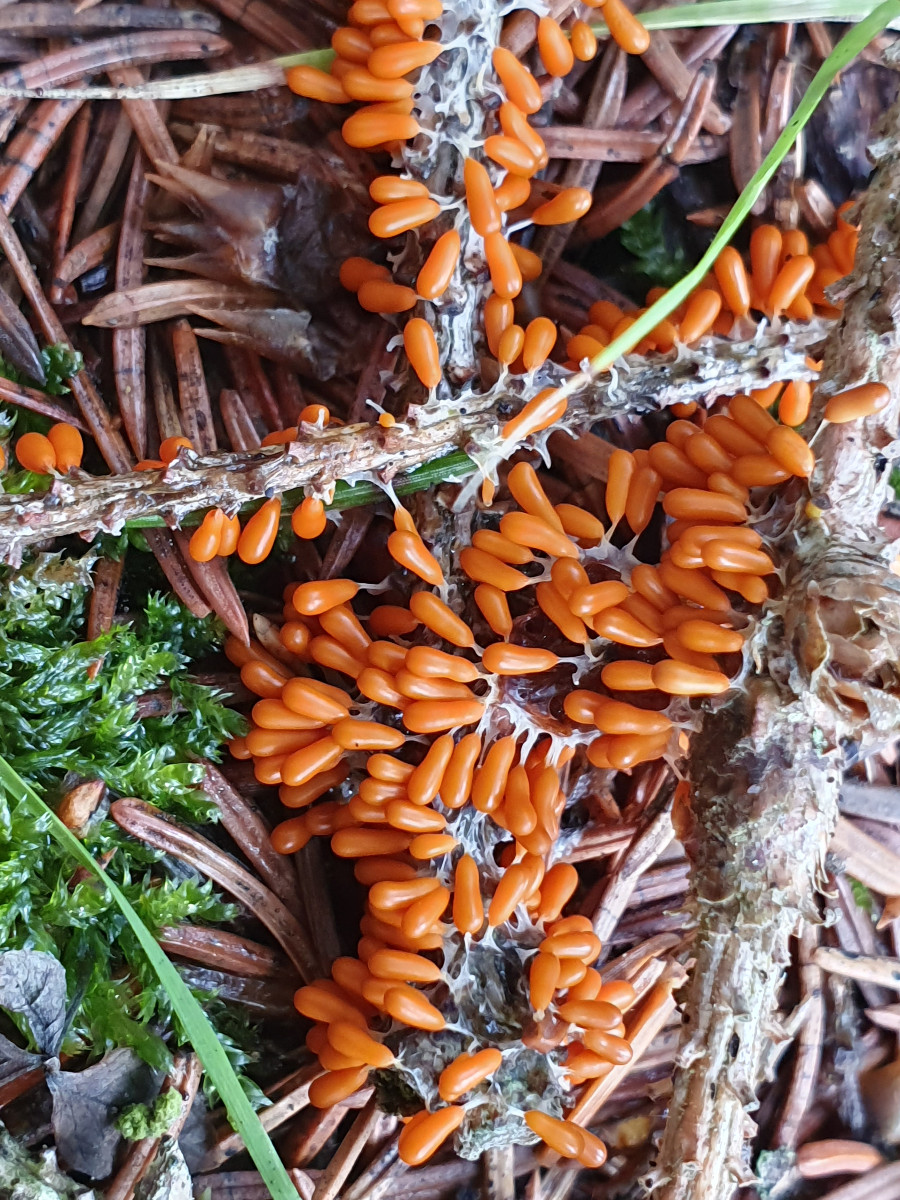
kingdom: Protozoa
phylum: Mycetozoa
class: Myxomycetes
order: Physarales
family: Physaraceae
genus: Leocarpus
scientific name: Leocarpus fragilis
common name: poleret glatfrø
